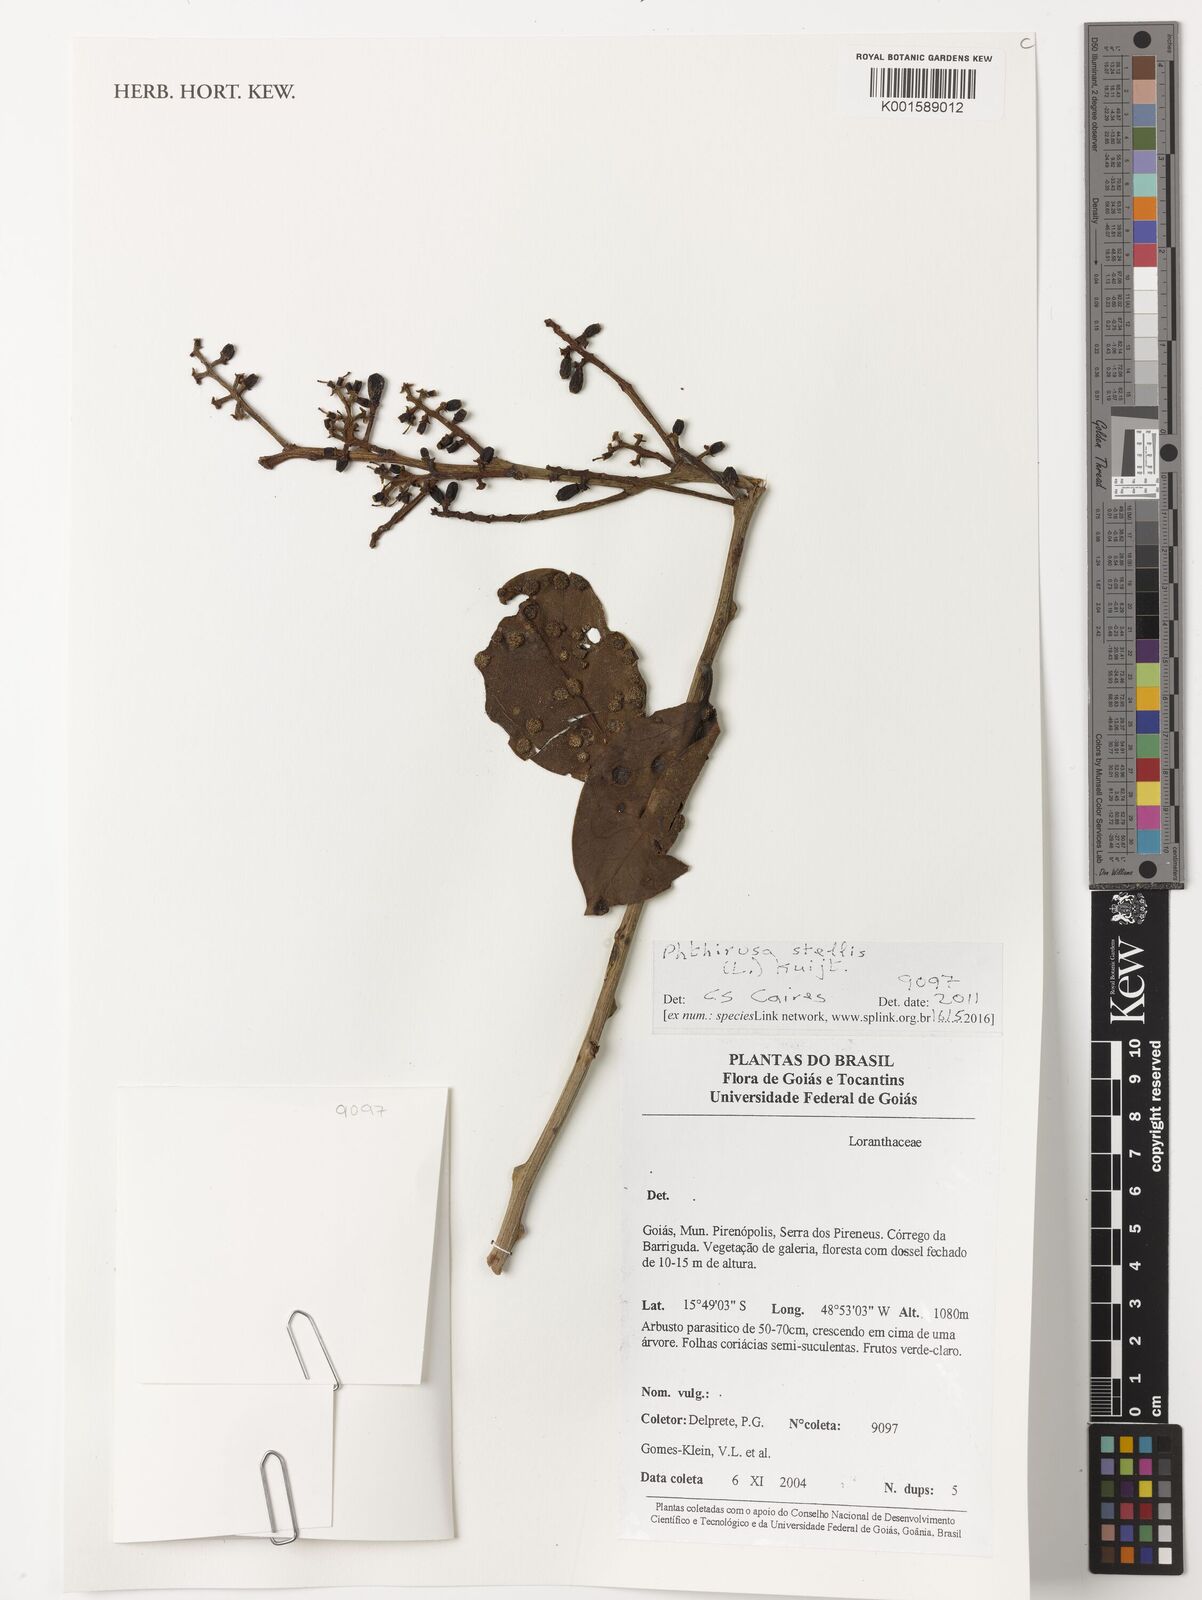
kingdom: Plantae
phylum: Tracheophyta
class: Magnoliopsida
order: Santalales
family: Loranthaceae
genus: Passovia
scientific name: Passovia pedunculata
